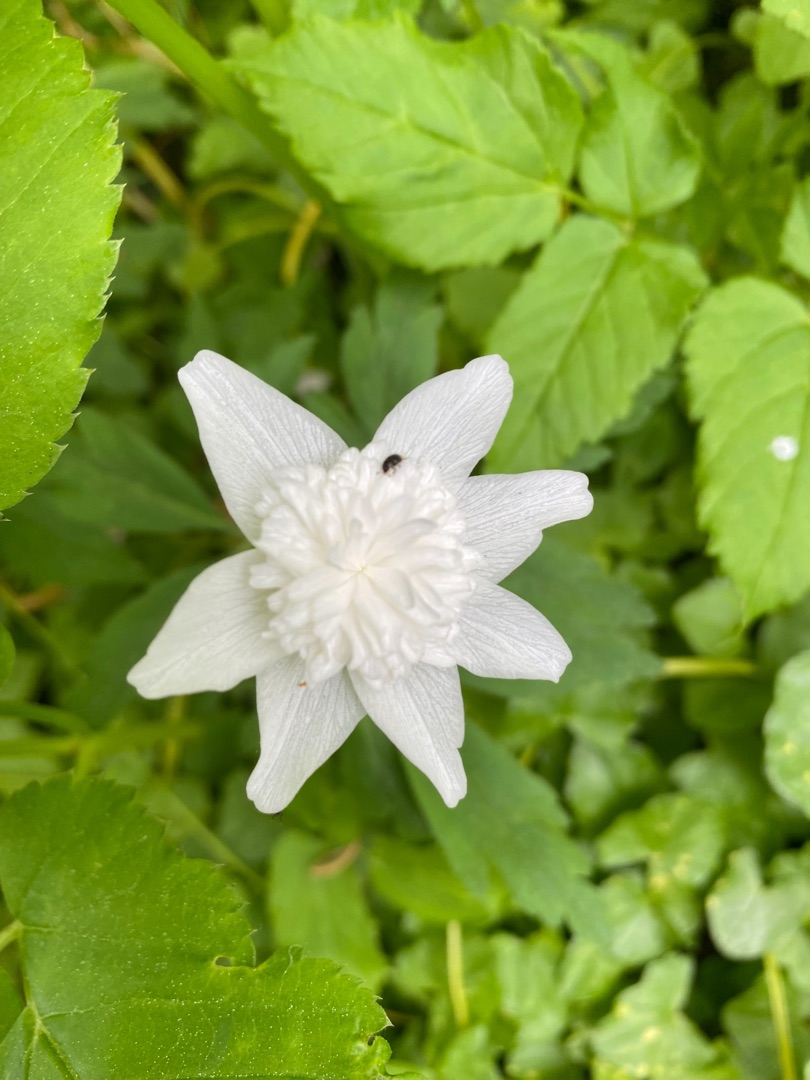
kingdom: Plantae
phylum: Tracheophyta
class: Magnoliopsida
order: Ranunculales
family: Ranunculaceae
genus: Anemone
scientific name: Anemone nemorosa
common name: Hvid anemone
